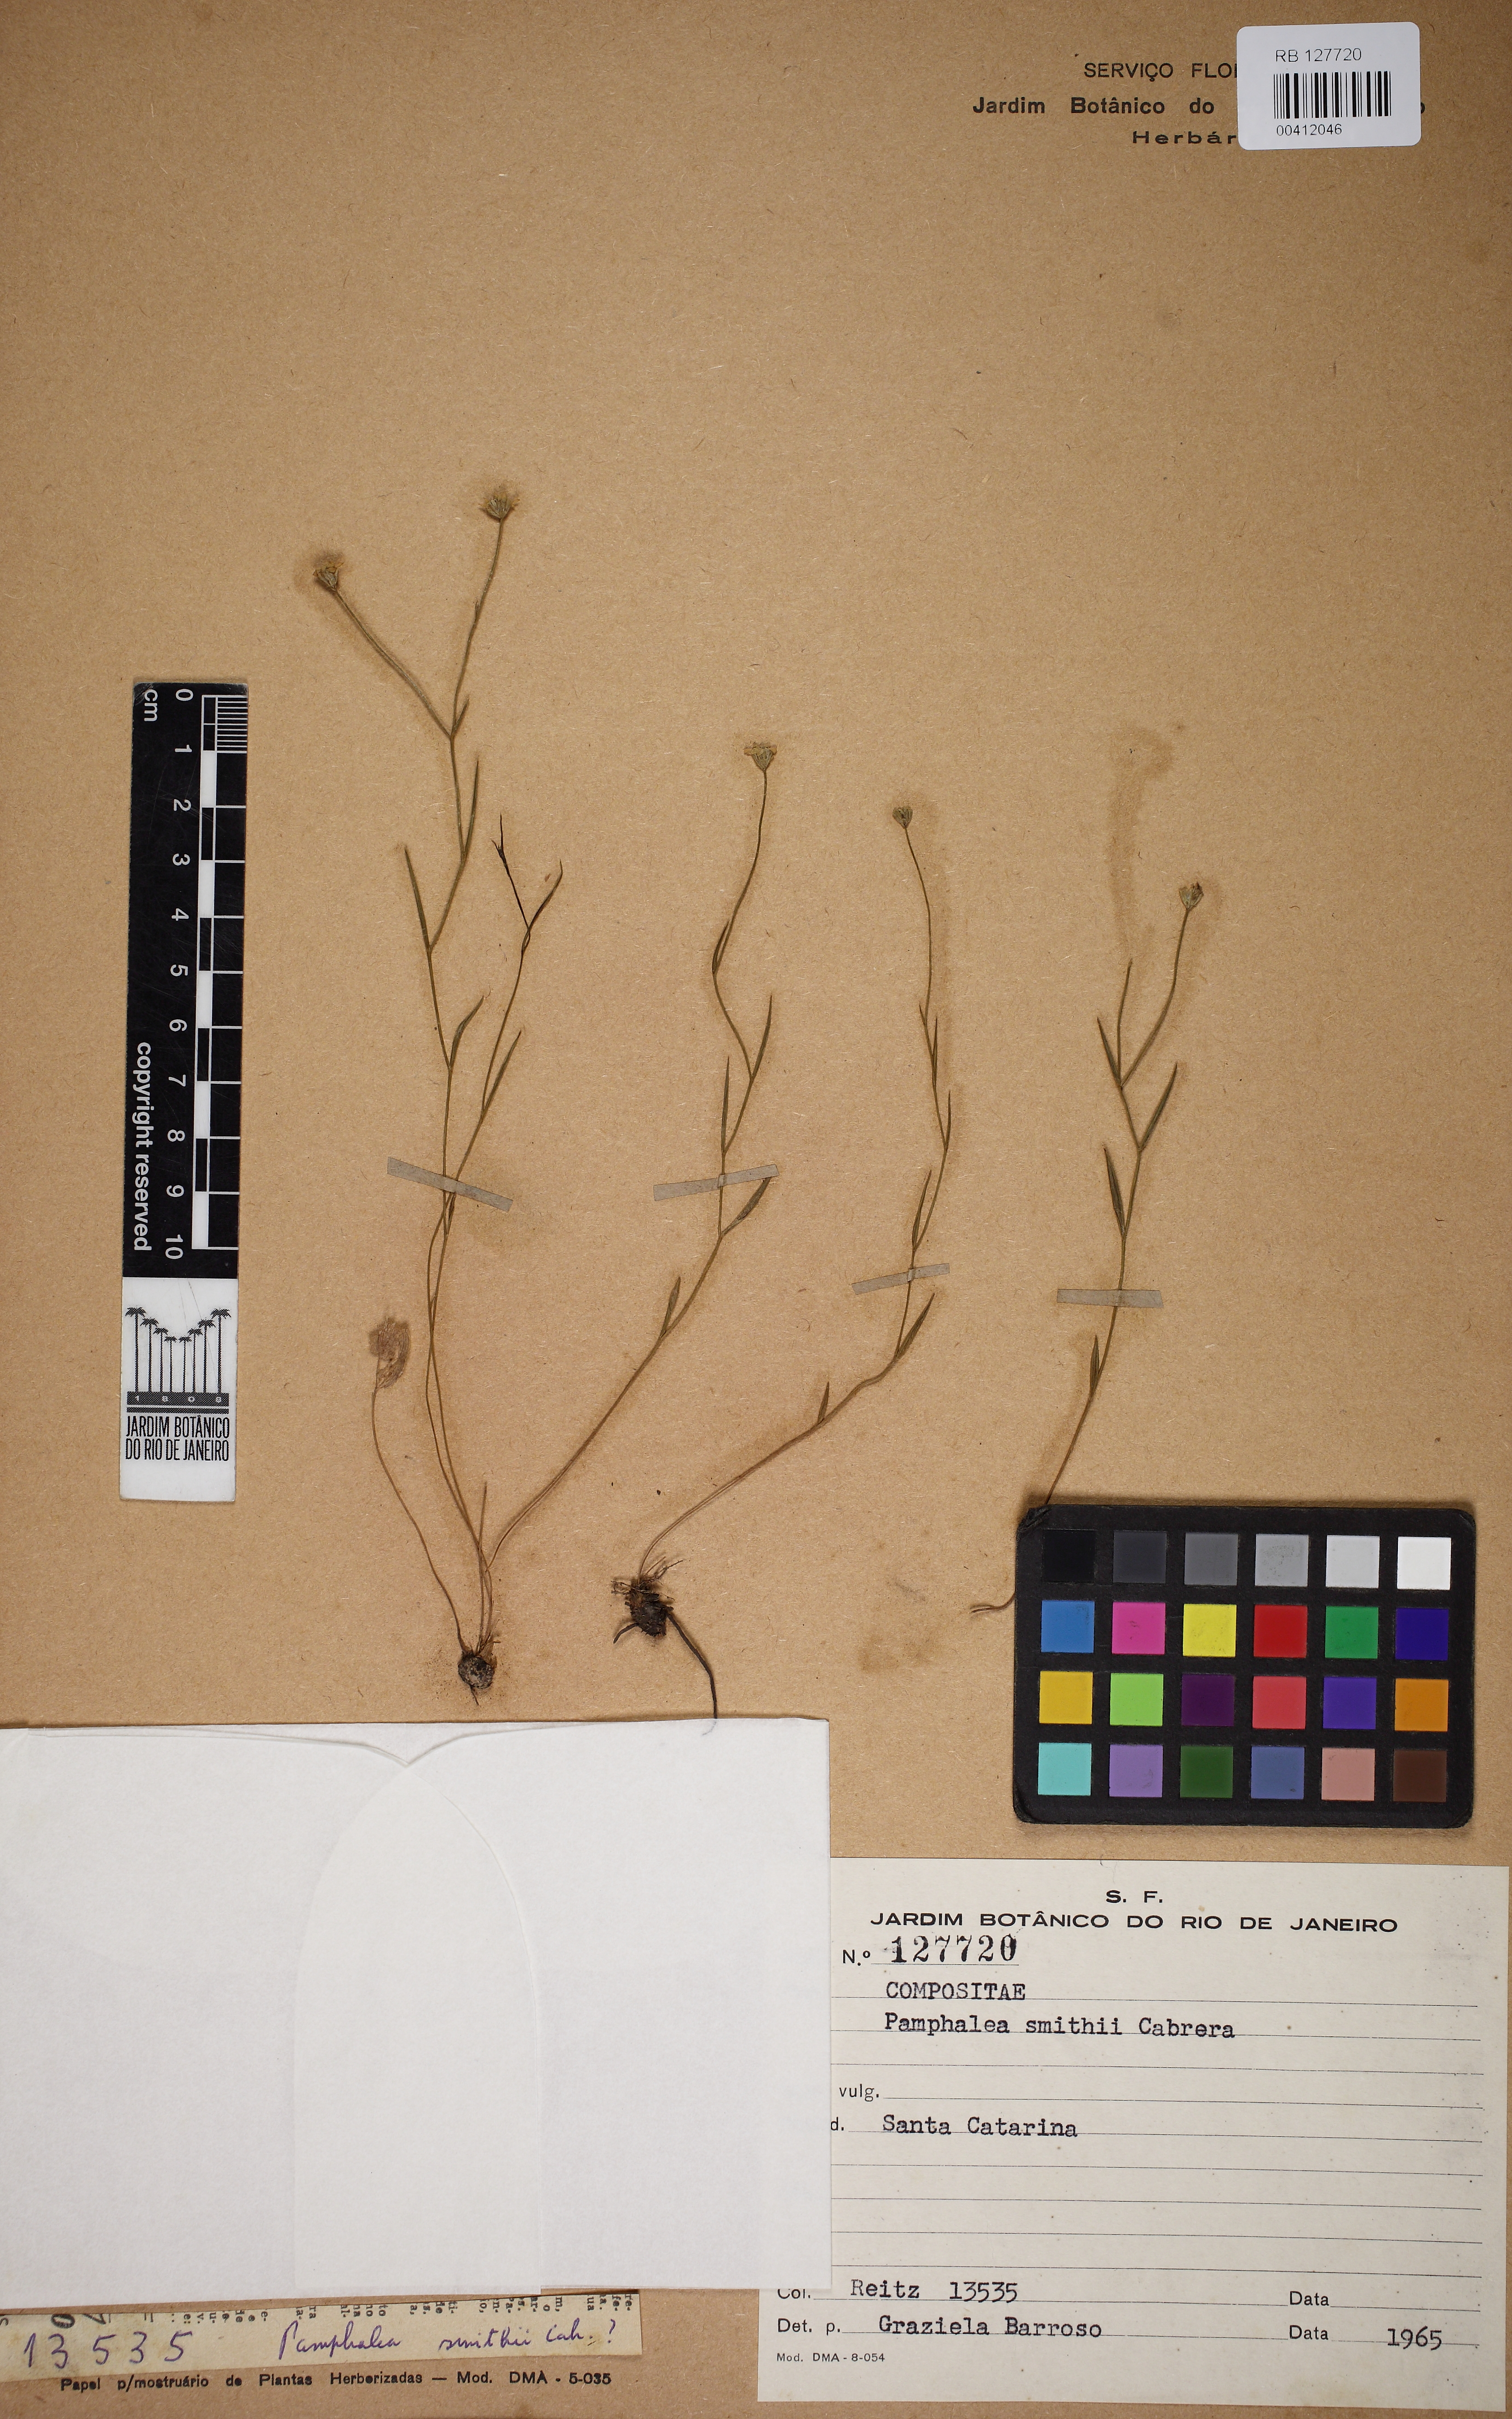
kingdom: Plantae
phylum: Tracheophyta
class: Magnoliopsida
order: Asterales
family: Asteraceae
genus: Panphalea
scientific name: Panphalea smithii
